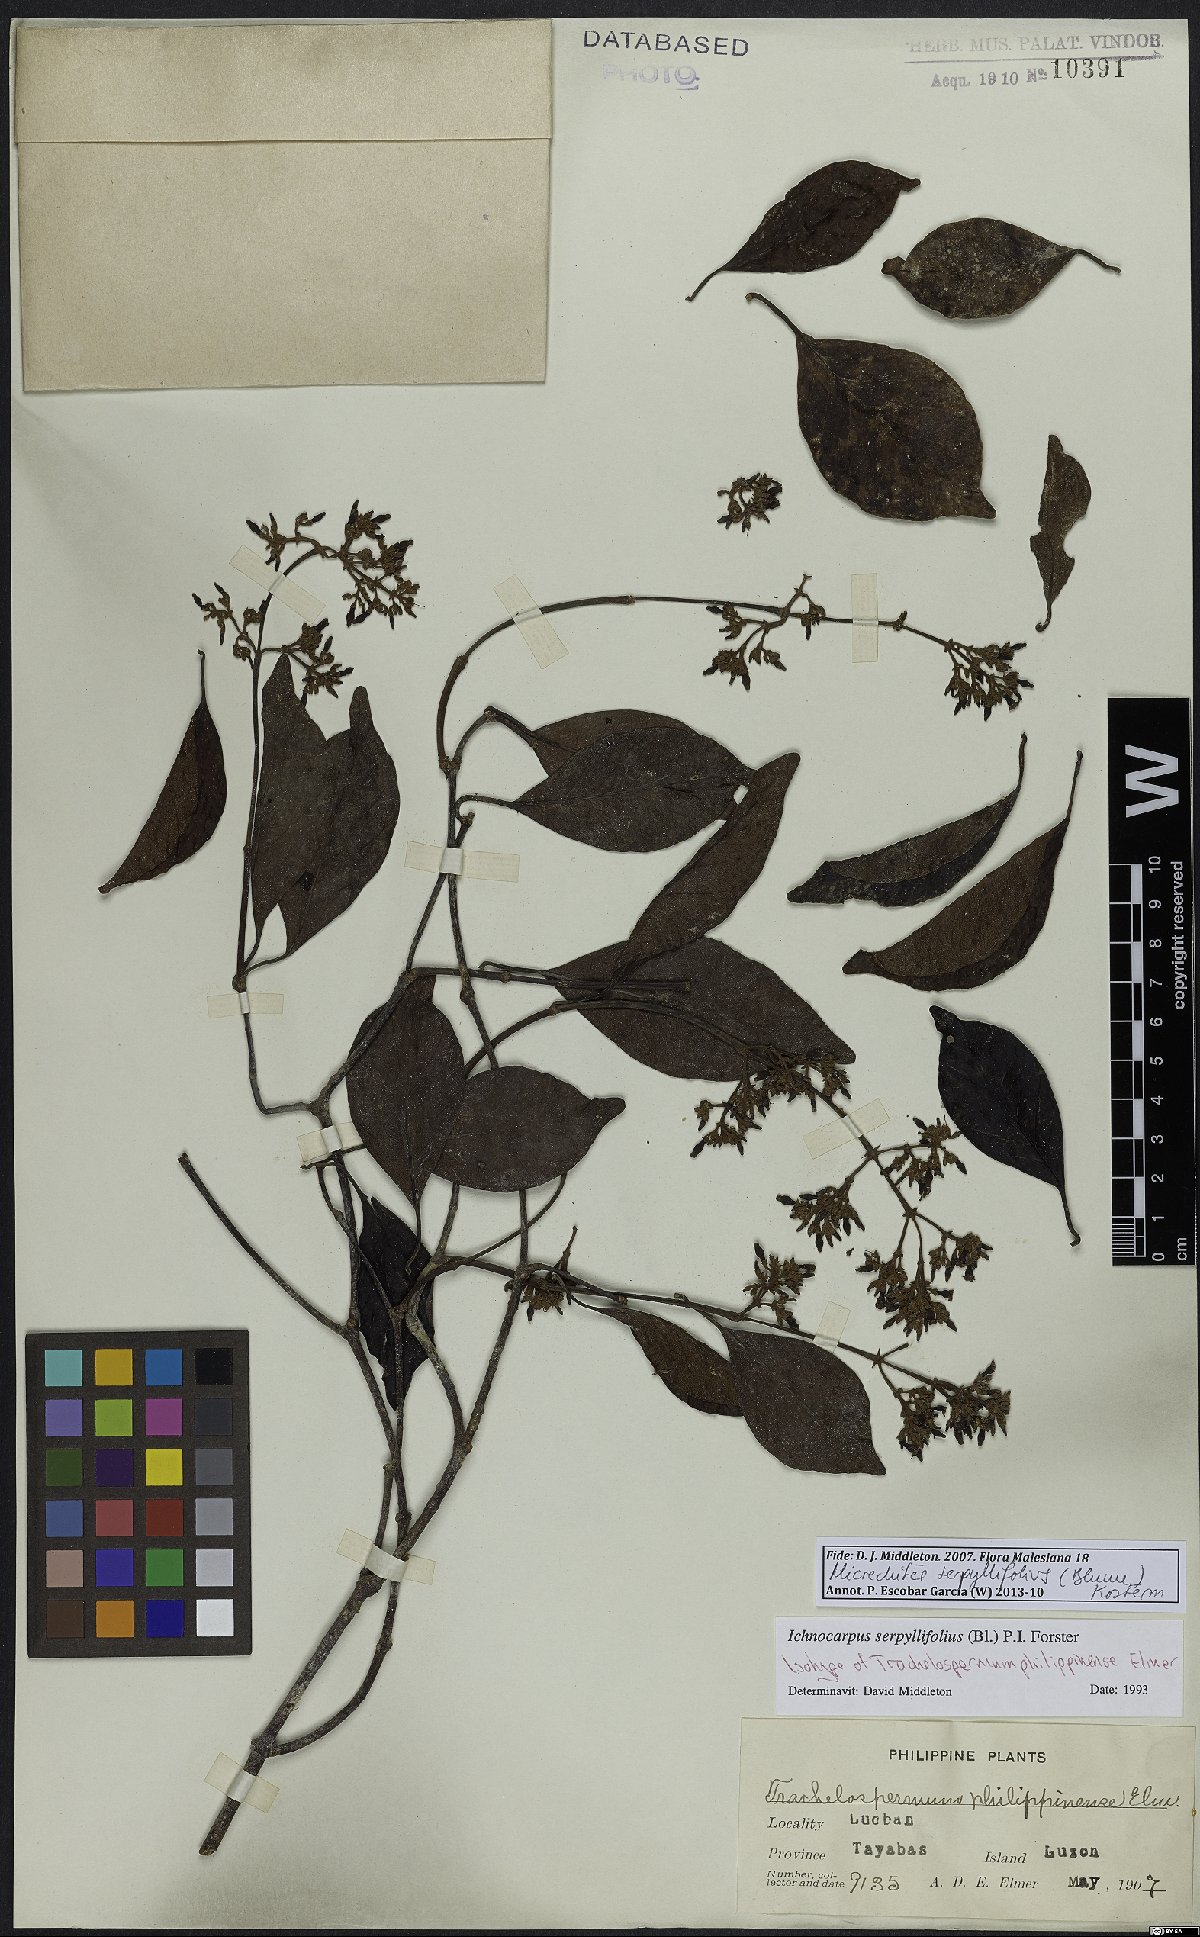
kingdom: Plantae
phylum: Tracheophyta
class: Magnoliopsida
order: Gentianales
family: Apocynaceae
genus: Micrechites
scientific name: Micrechites serpyllifolia
